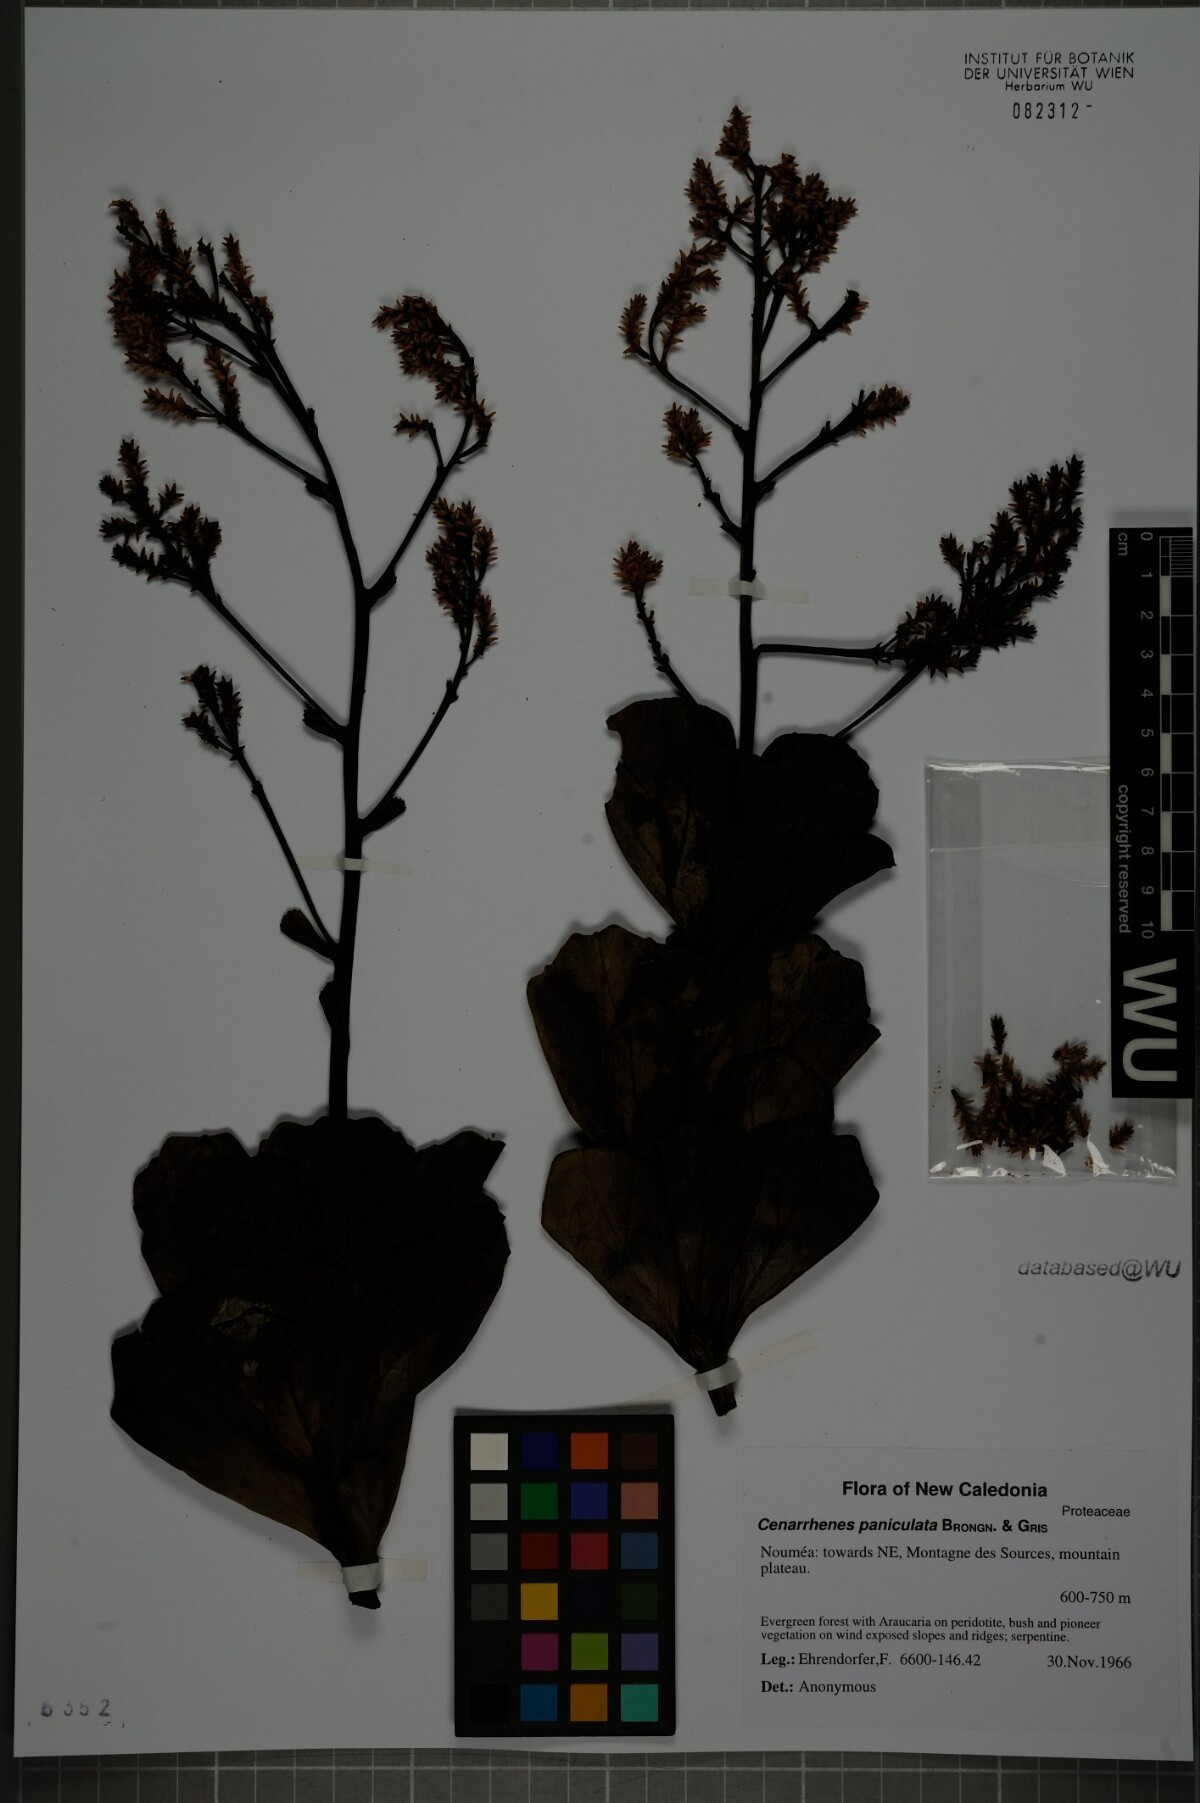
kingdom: Plantae
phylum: Tracheophyta
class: Magnoliopsida
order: Proteales
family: Proteaceae
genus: Beaupreopsis
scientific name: Beaupreopsis paniculata
